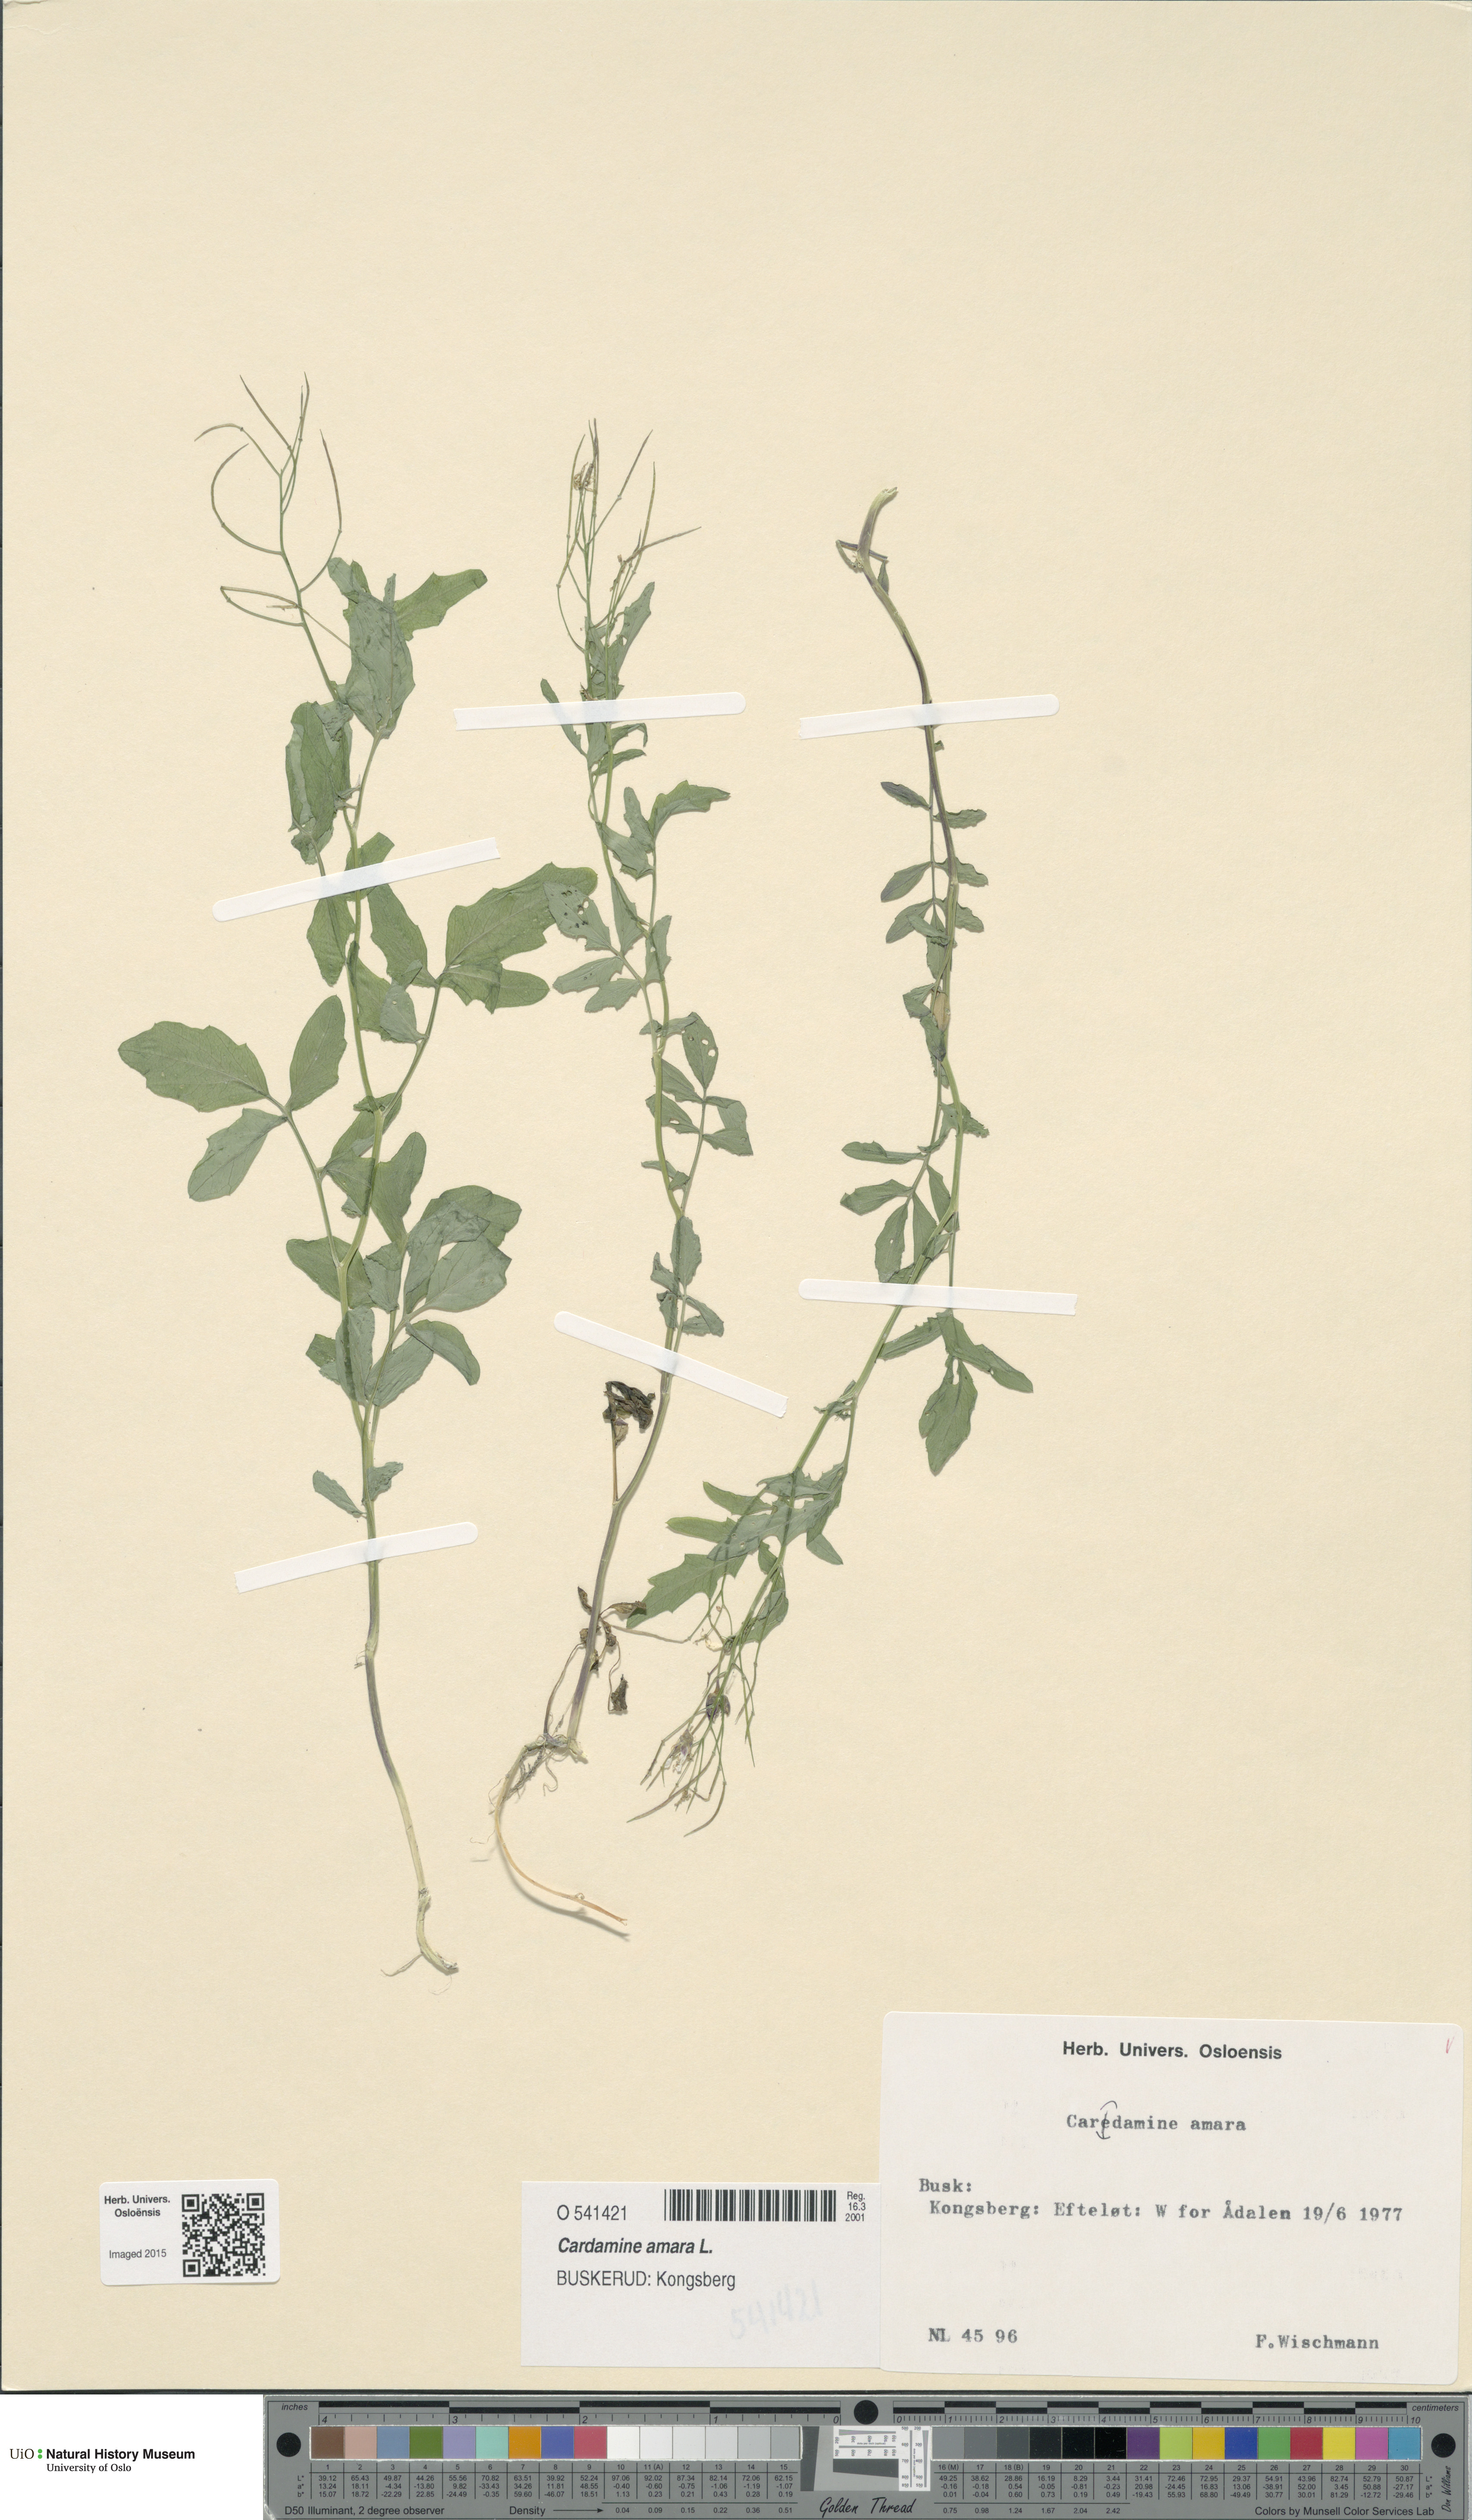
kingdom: Plantae
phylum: Tracheophyta
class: Magnoliopsida
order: Brassicales
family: Brassicaceae
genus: Cardamine
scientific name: Cardamine amara
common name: Large bitter-cress
